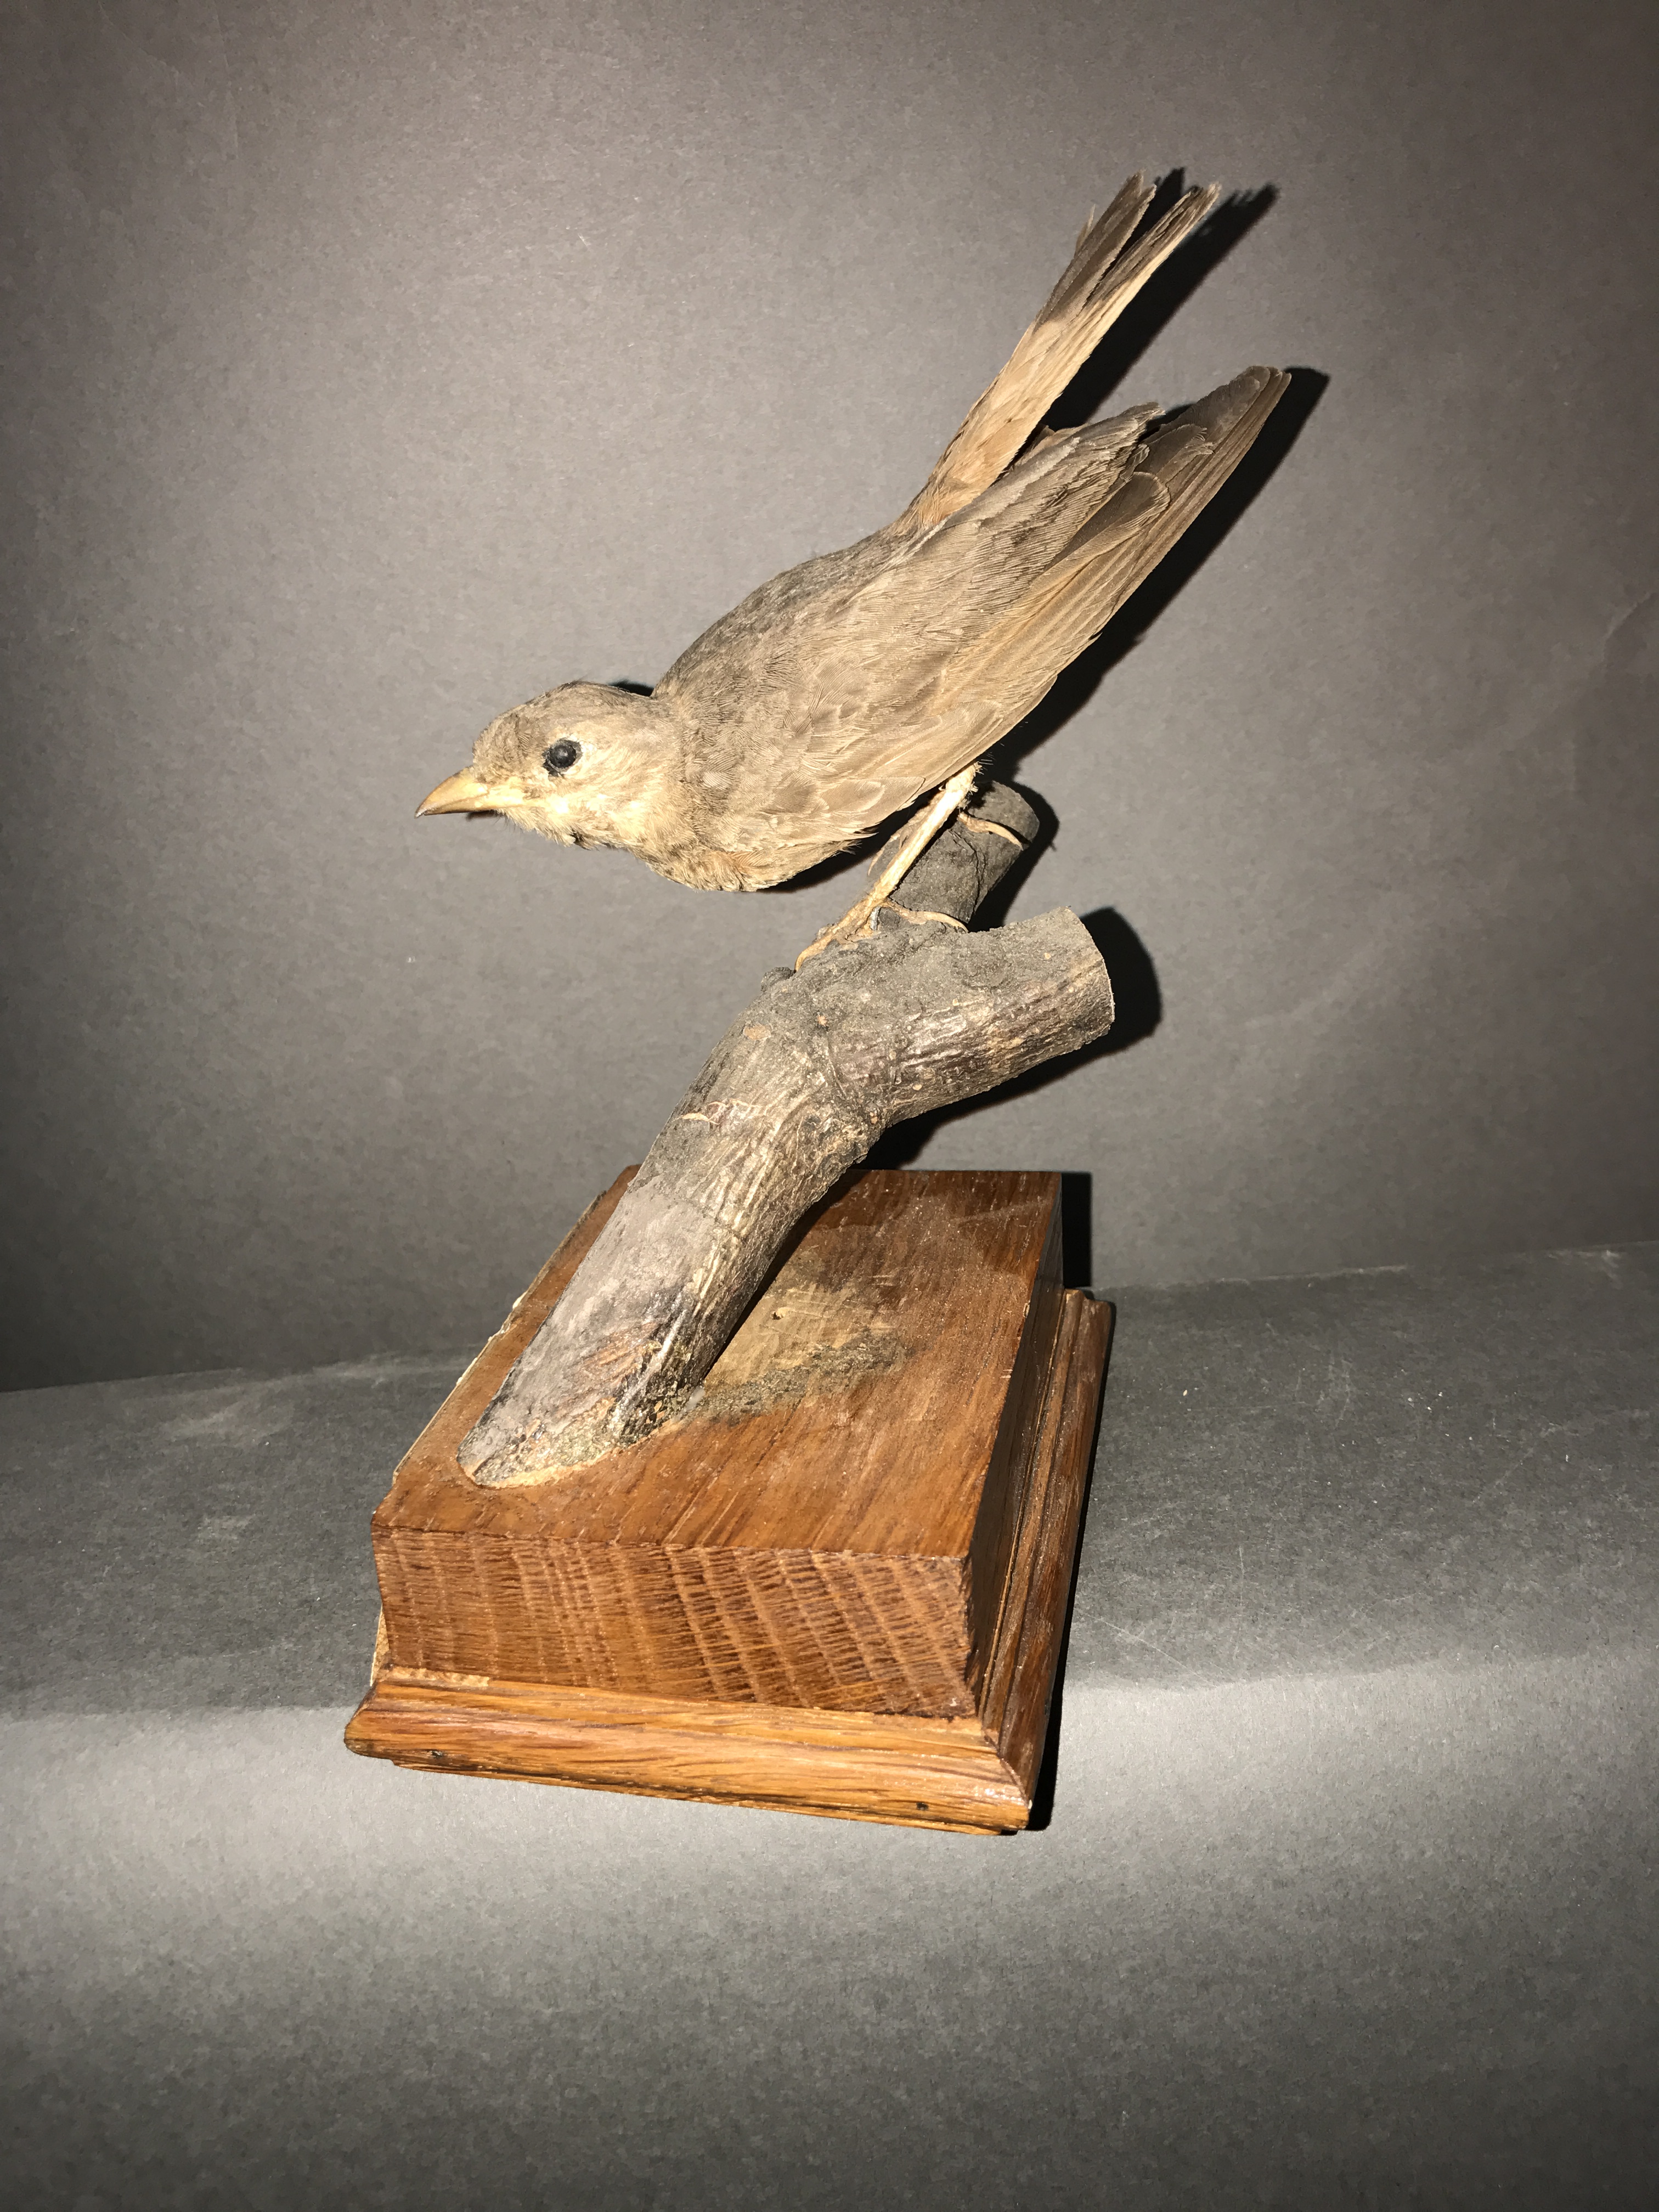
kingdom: Animalia
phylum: Chordata
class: Aves
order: Passeriformes
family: Alaudidae
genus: Ammomanes
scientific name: Ammomanes phoenicura
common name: Rufous-tailed lark
